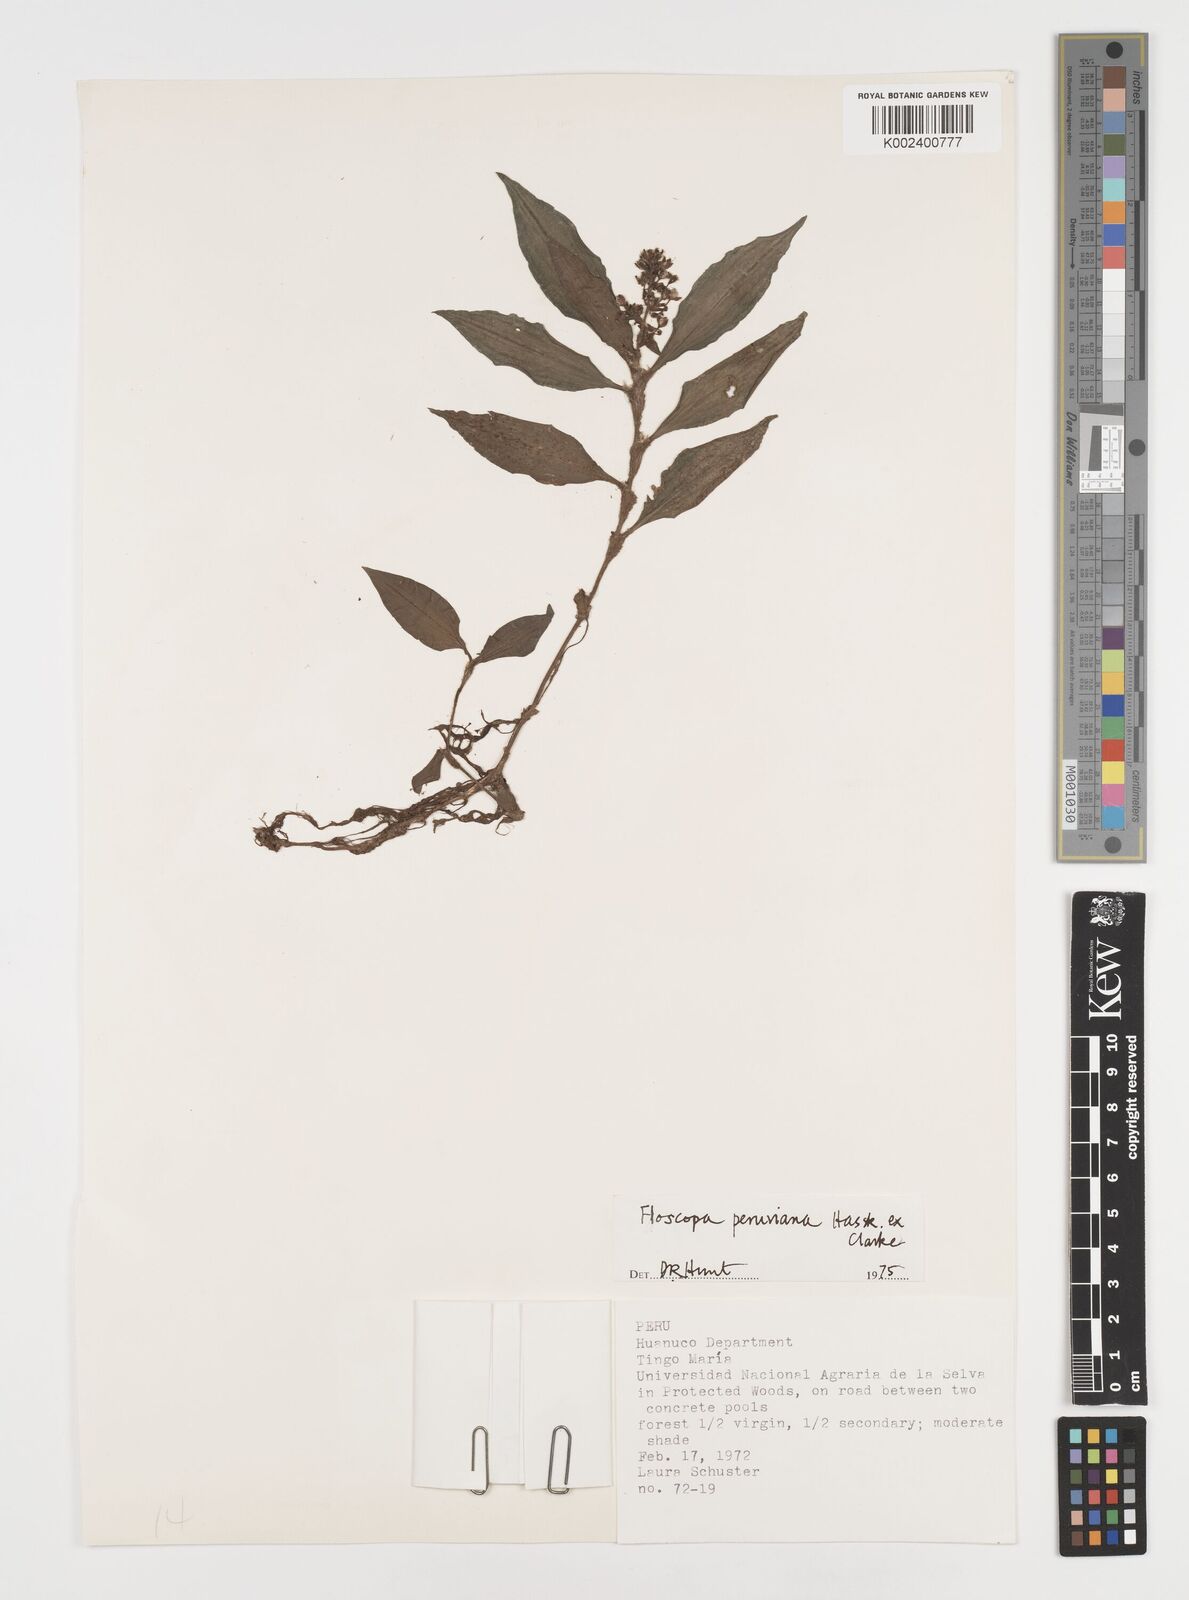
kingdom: Plantae
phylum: Tracheophyta
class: Liliopsida
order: Commelinales
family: Commelinaceae
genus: Floscopa
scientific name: Floscopa peruviana
